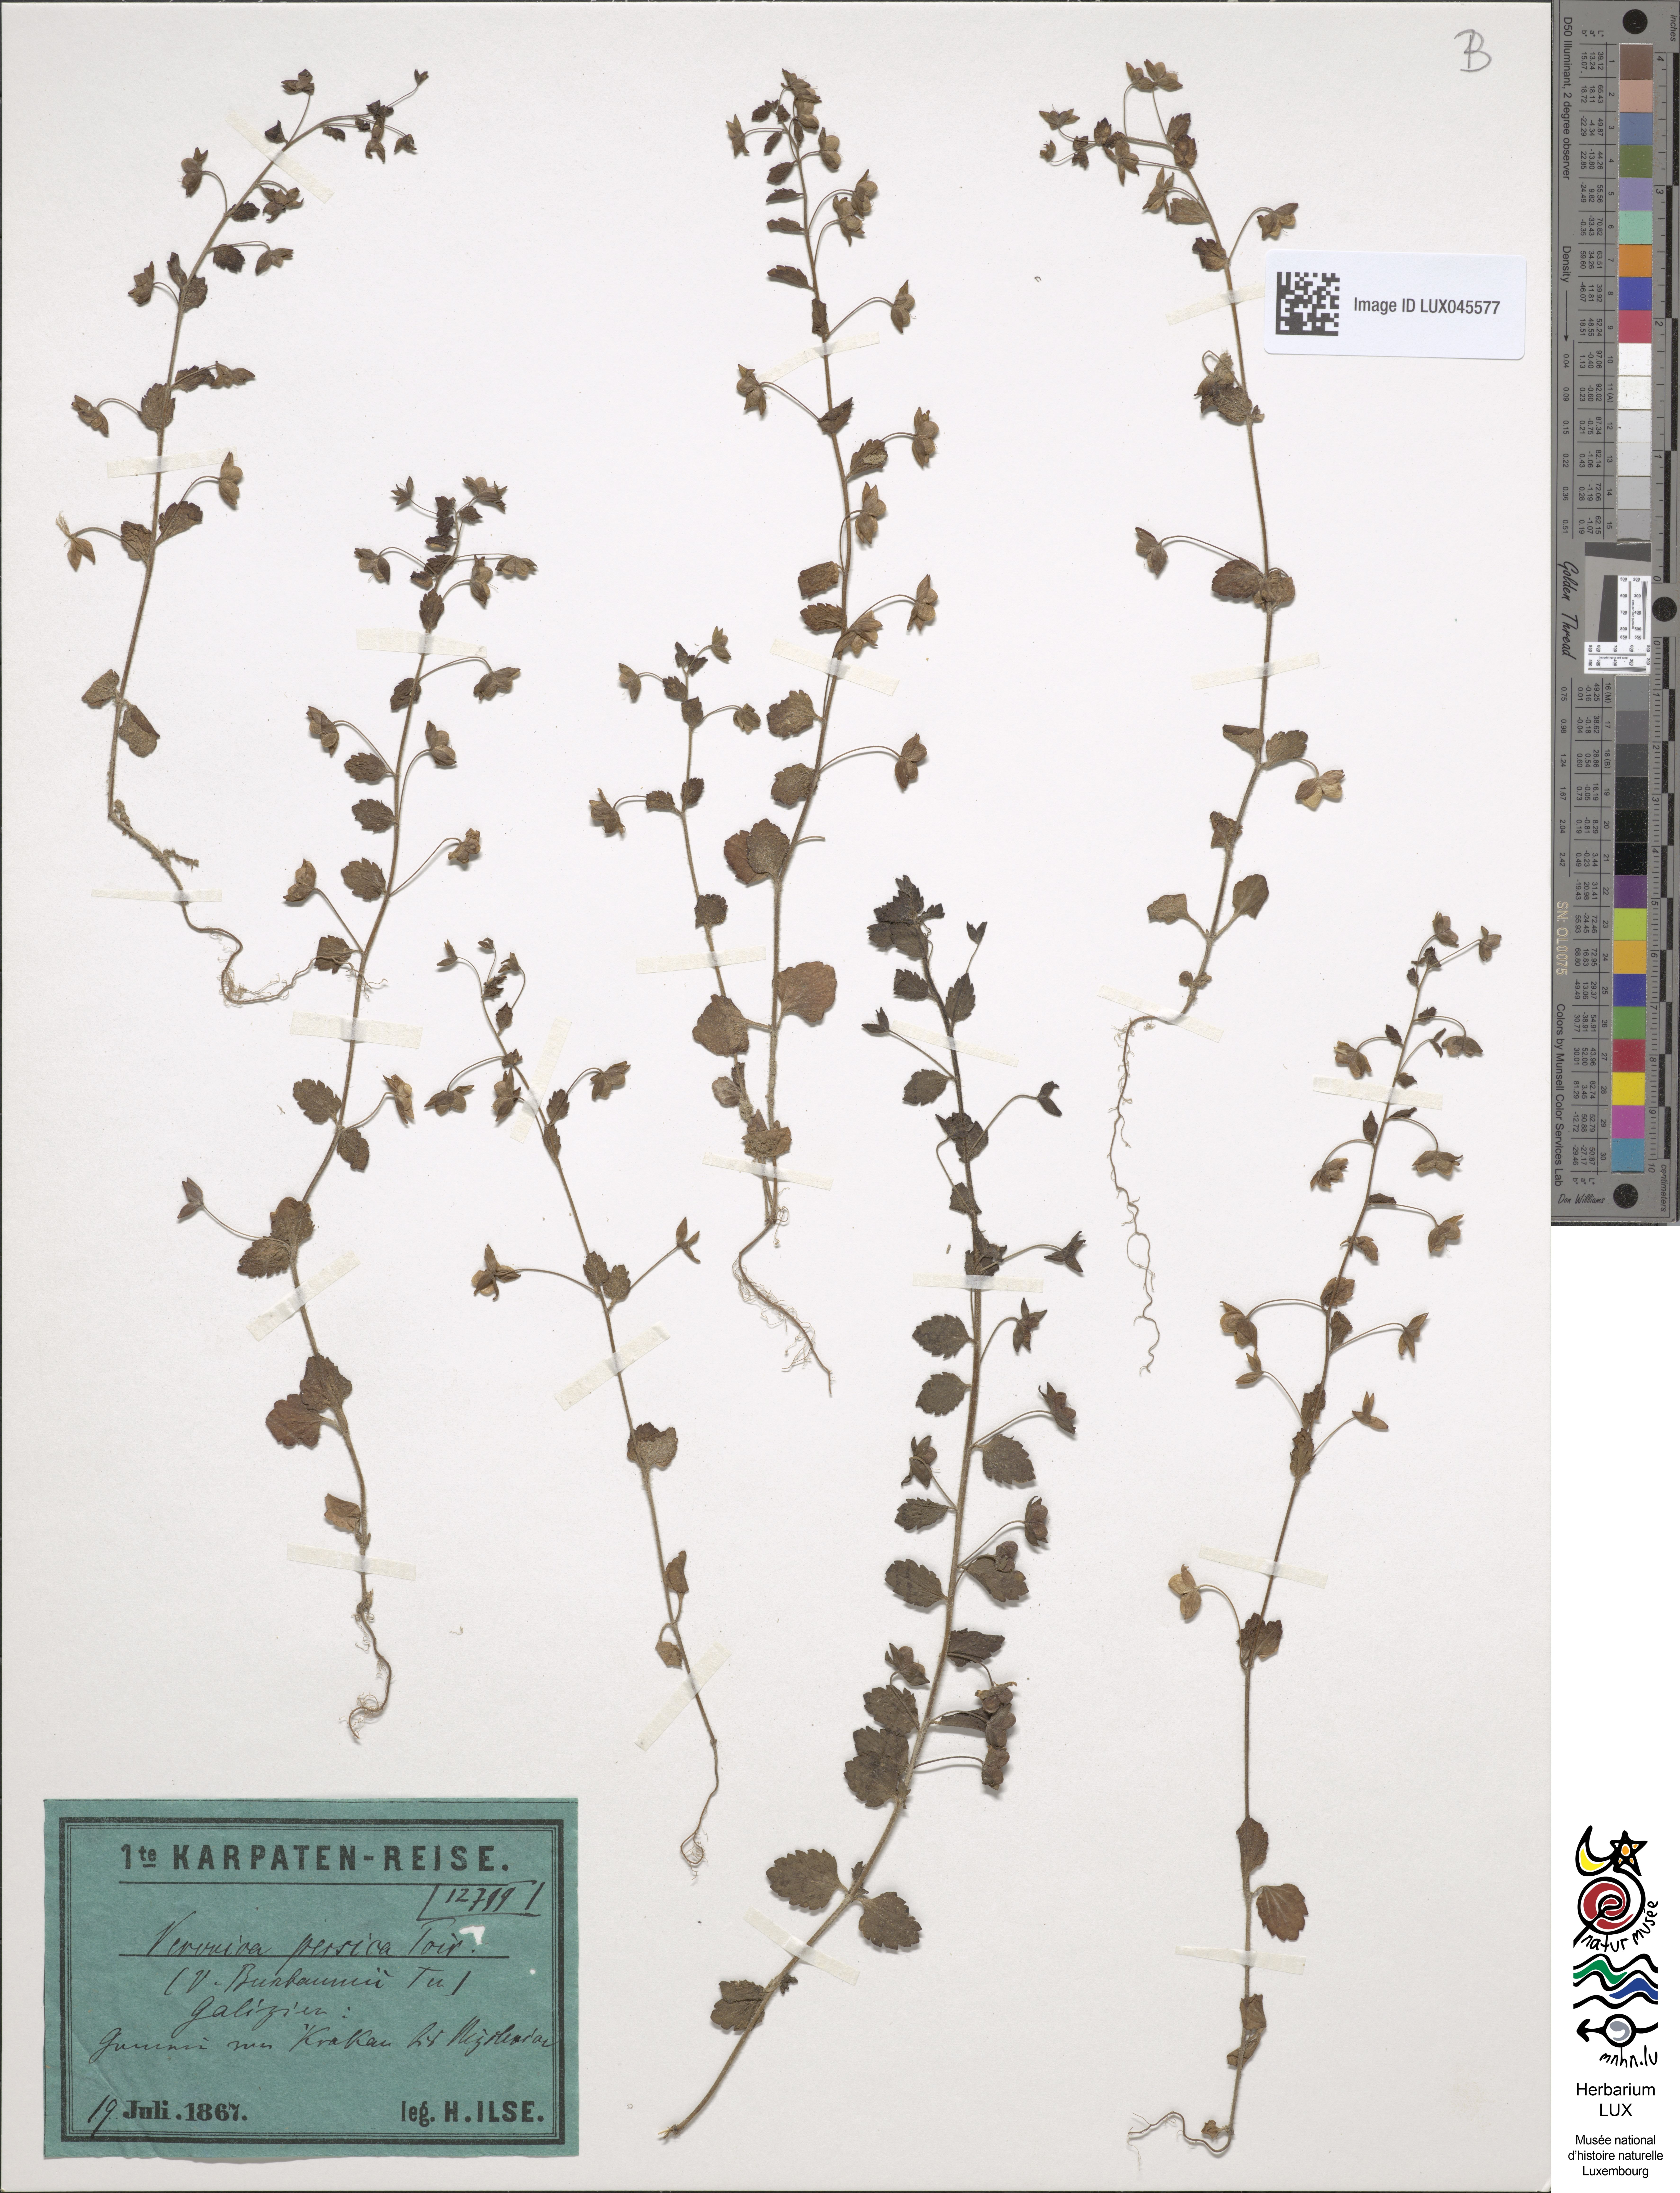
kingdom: Plantae
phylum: Tracheophyta
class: Magnoliopsida
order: Lamiales
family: Plantaginaceae
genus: Veronica
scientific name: Veronica persica
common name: Common field-speedwell
